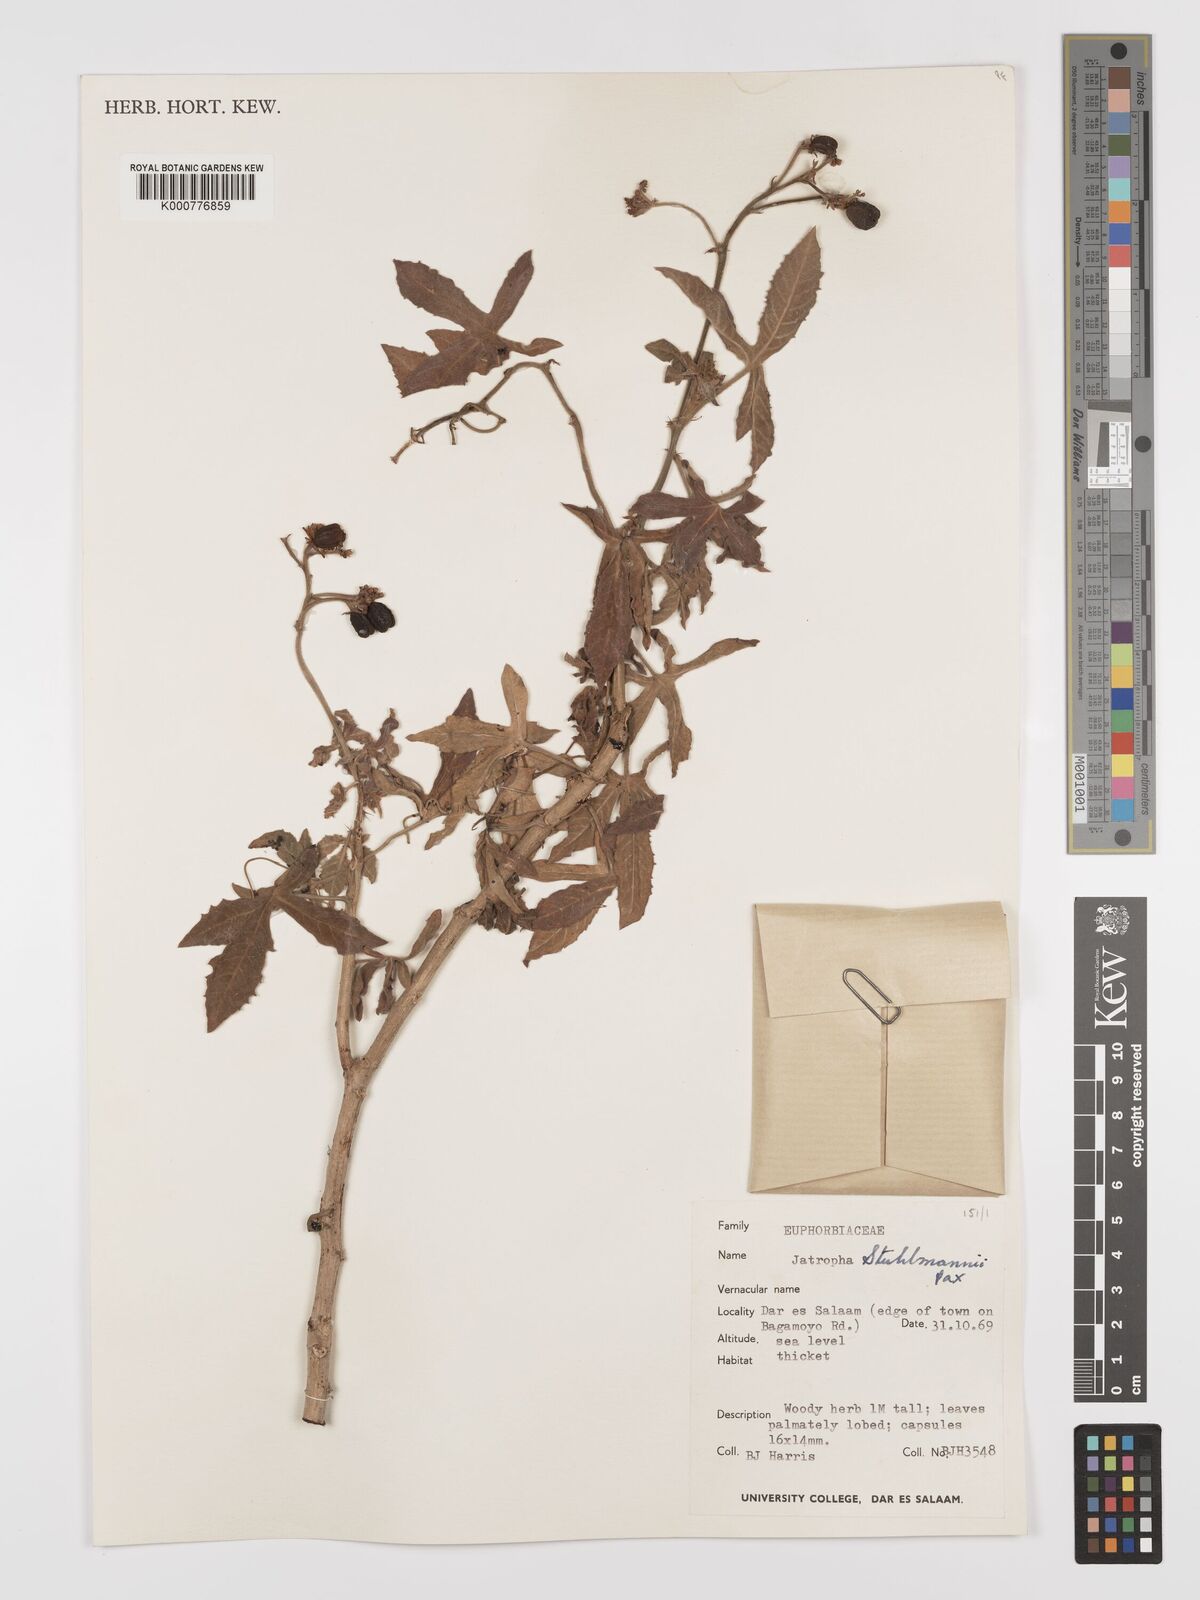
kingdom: Plantae
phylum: Tracheophyta
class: Magnoliopsida
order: Malpighiales
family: Euphorbiaceae
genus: Jatropha
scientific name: Jatropha stuhlmannii
